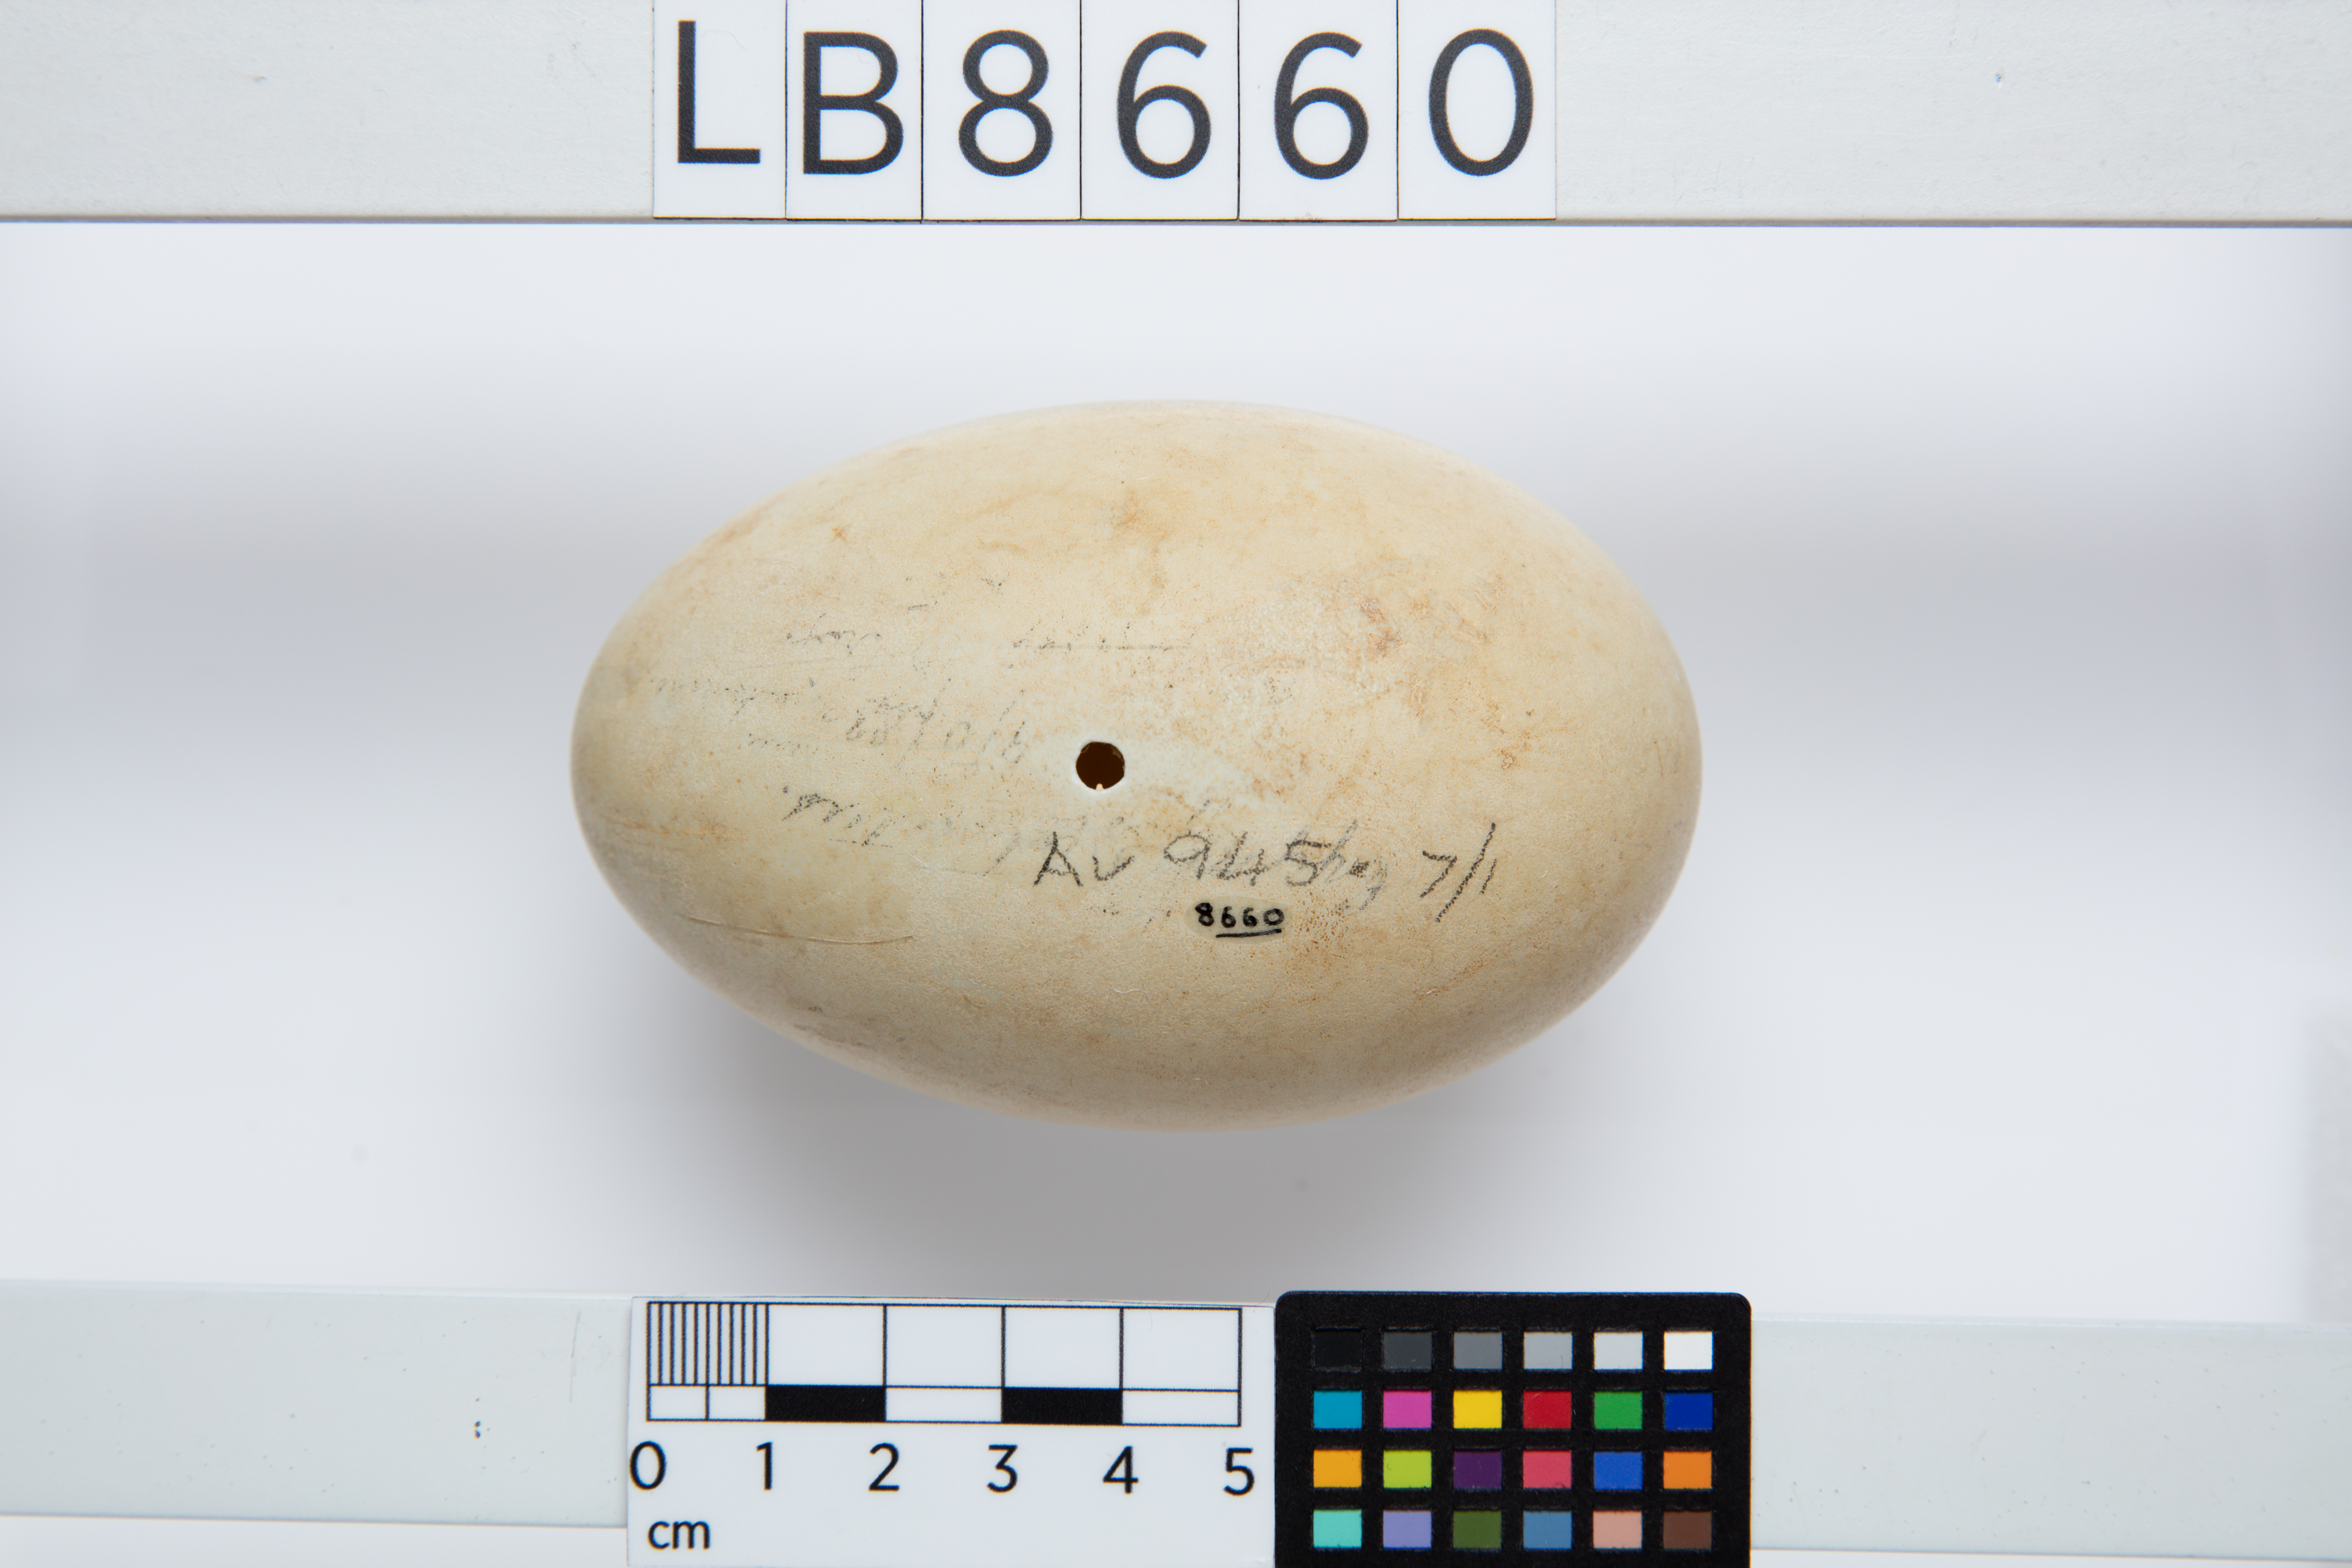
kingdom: Animalia
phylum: Chordata
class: Aves
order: Anseriformes
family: Anatidae
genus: Cygnus
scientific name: Cygnus atratus
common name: Black swan
